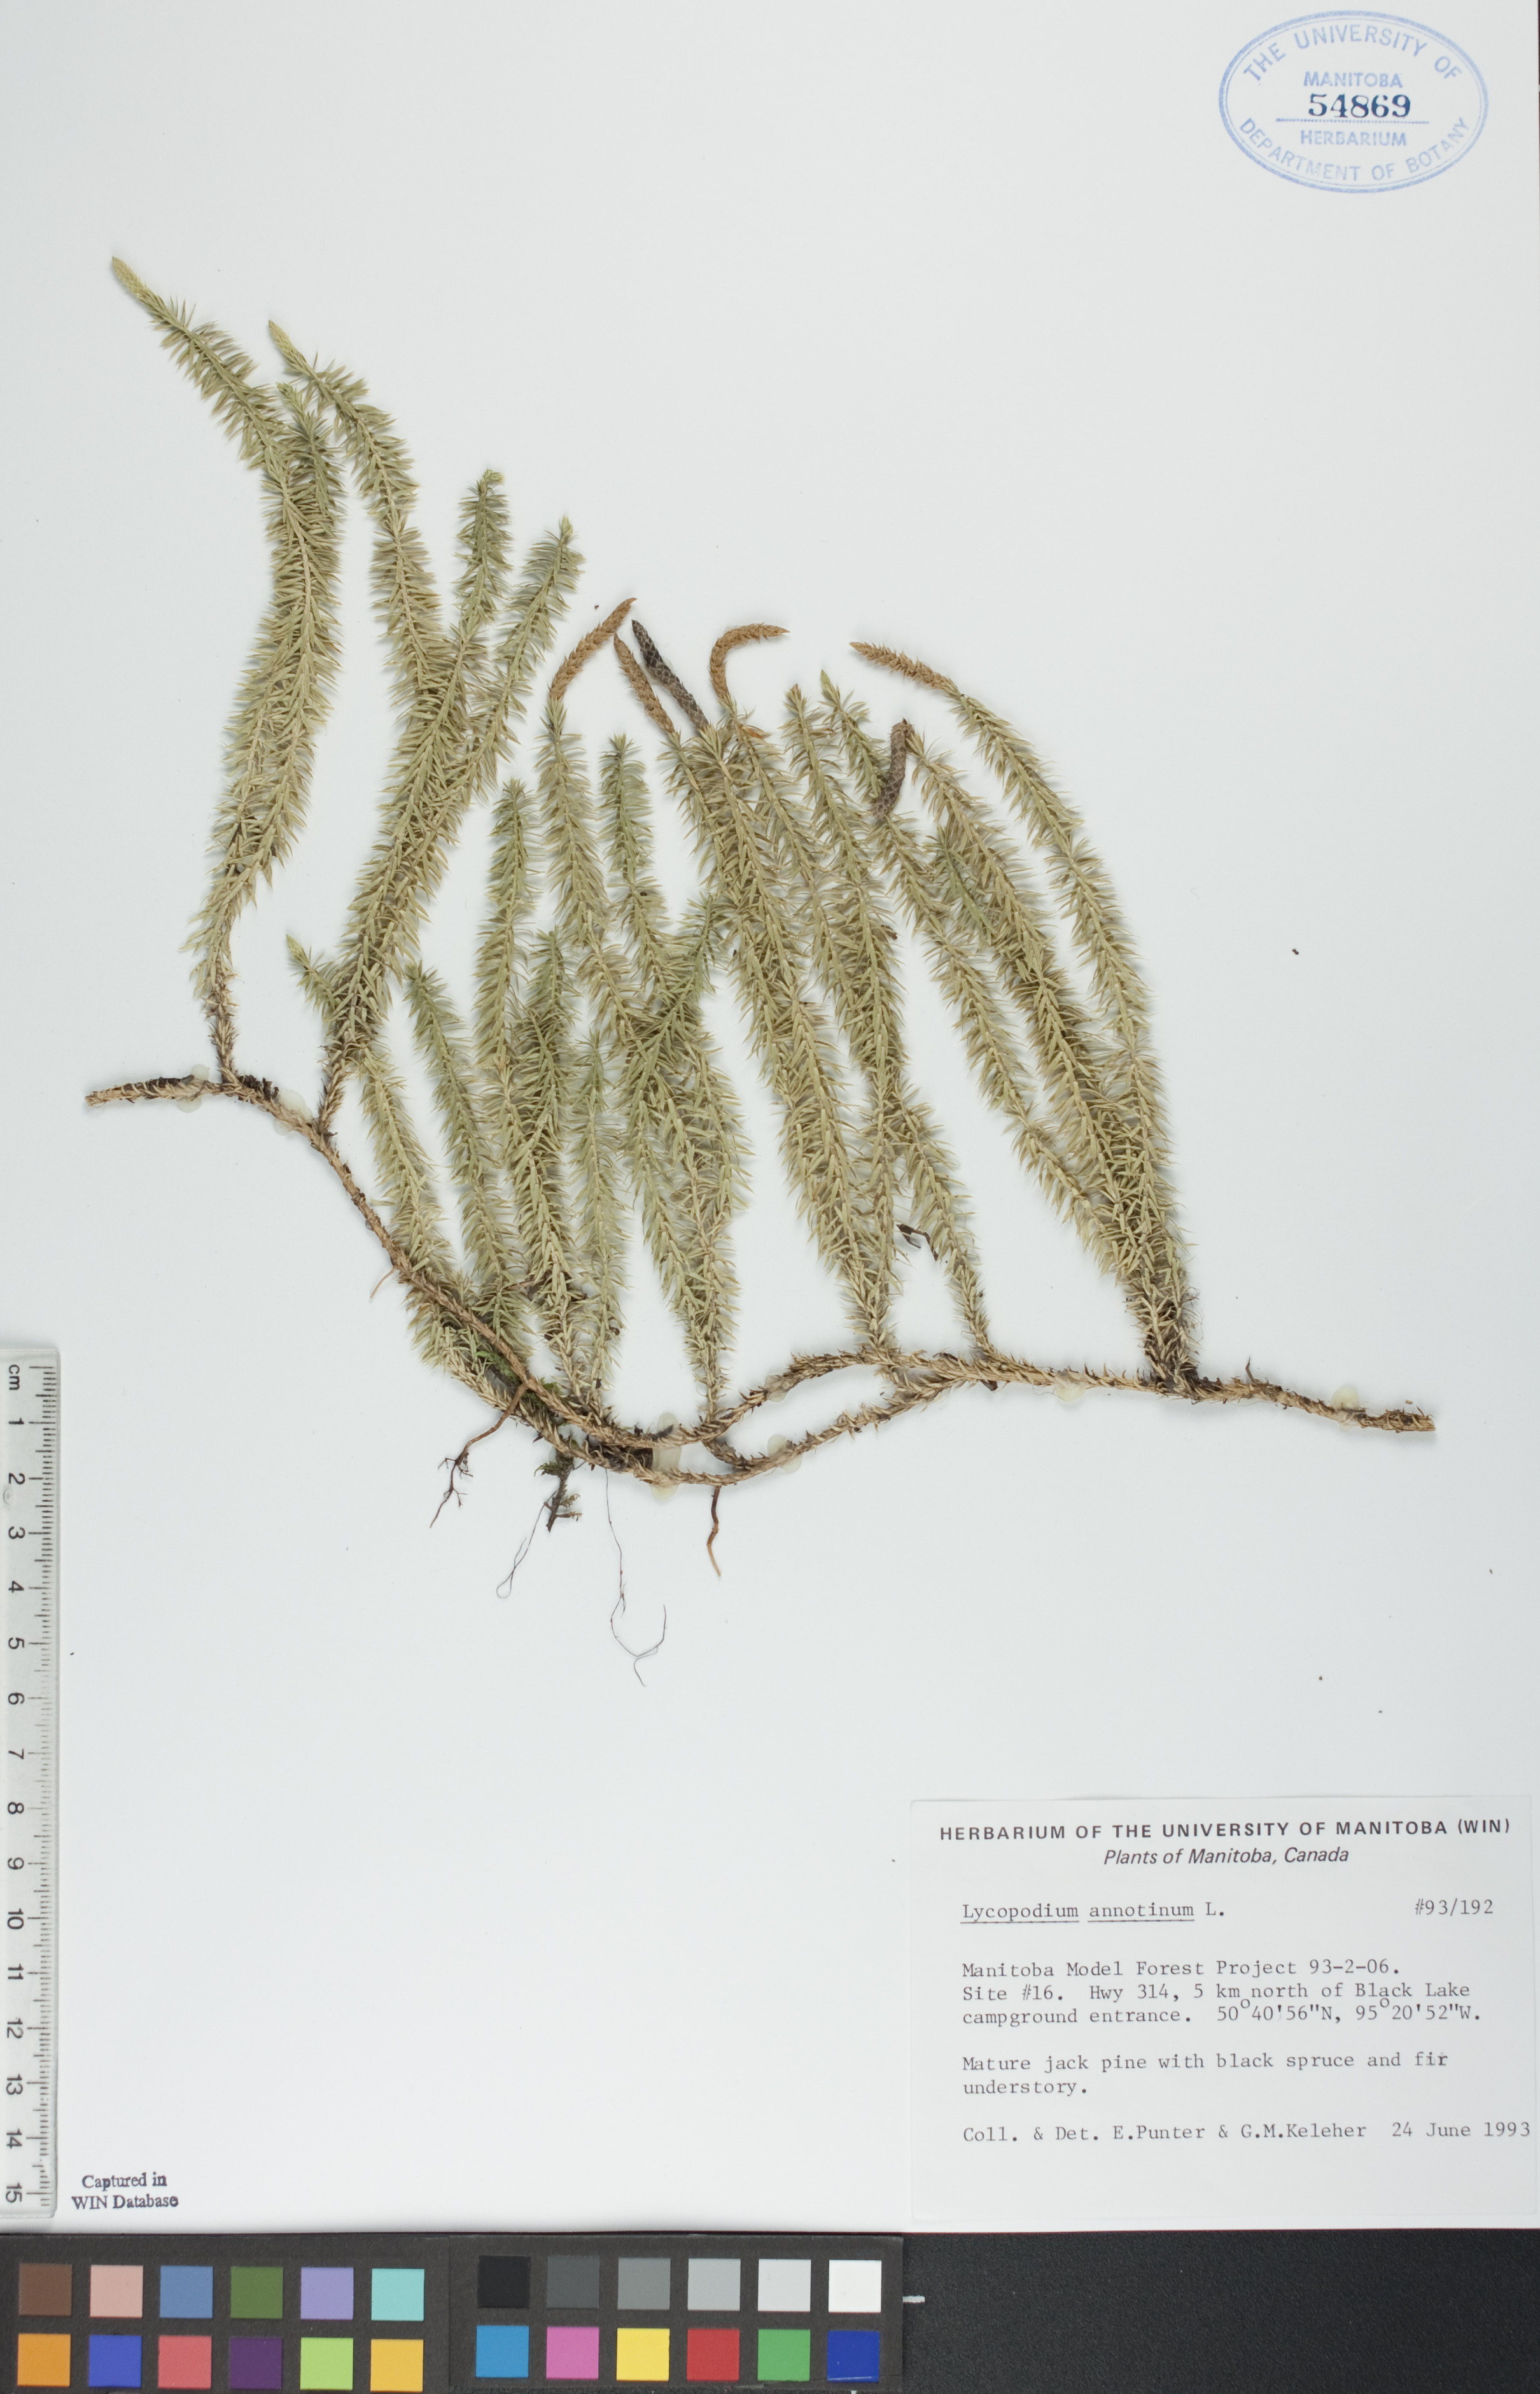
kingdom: Plantae
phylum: Tracheophyta
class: Lycopodiopsida
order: Lycopodiales
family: Lycopodiaceae
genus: Spinulum
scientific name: Spinulum annotinum
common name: Interrupted club-moss
